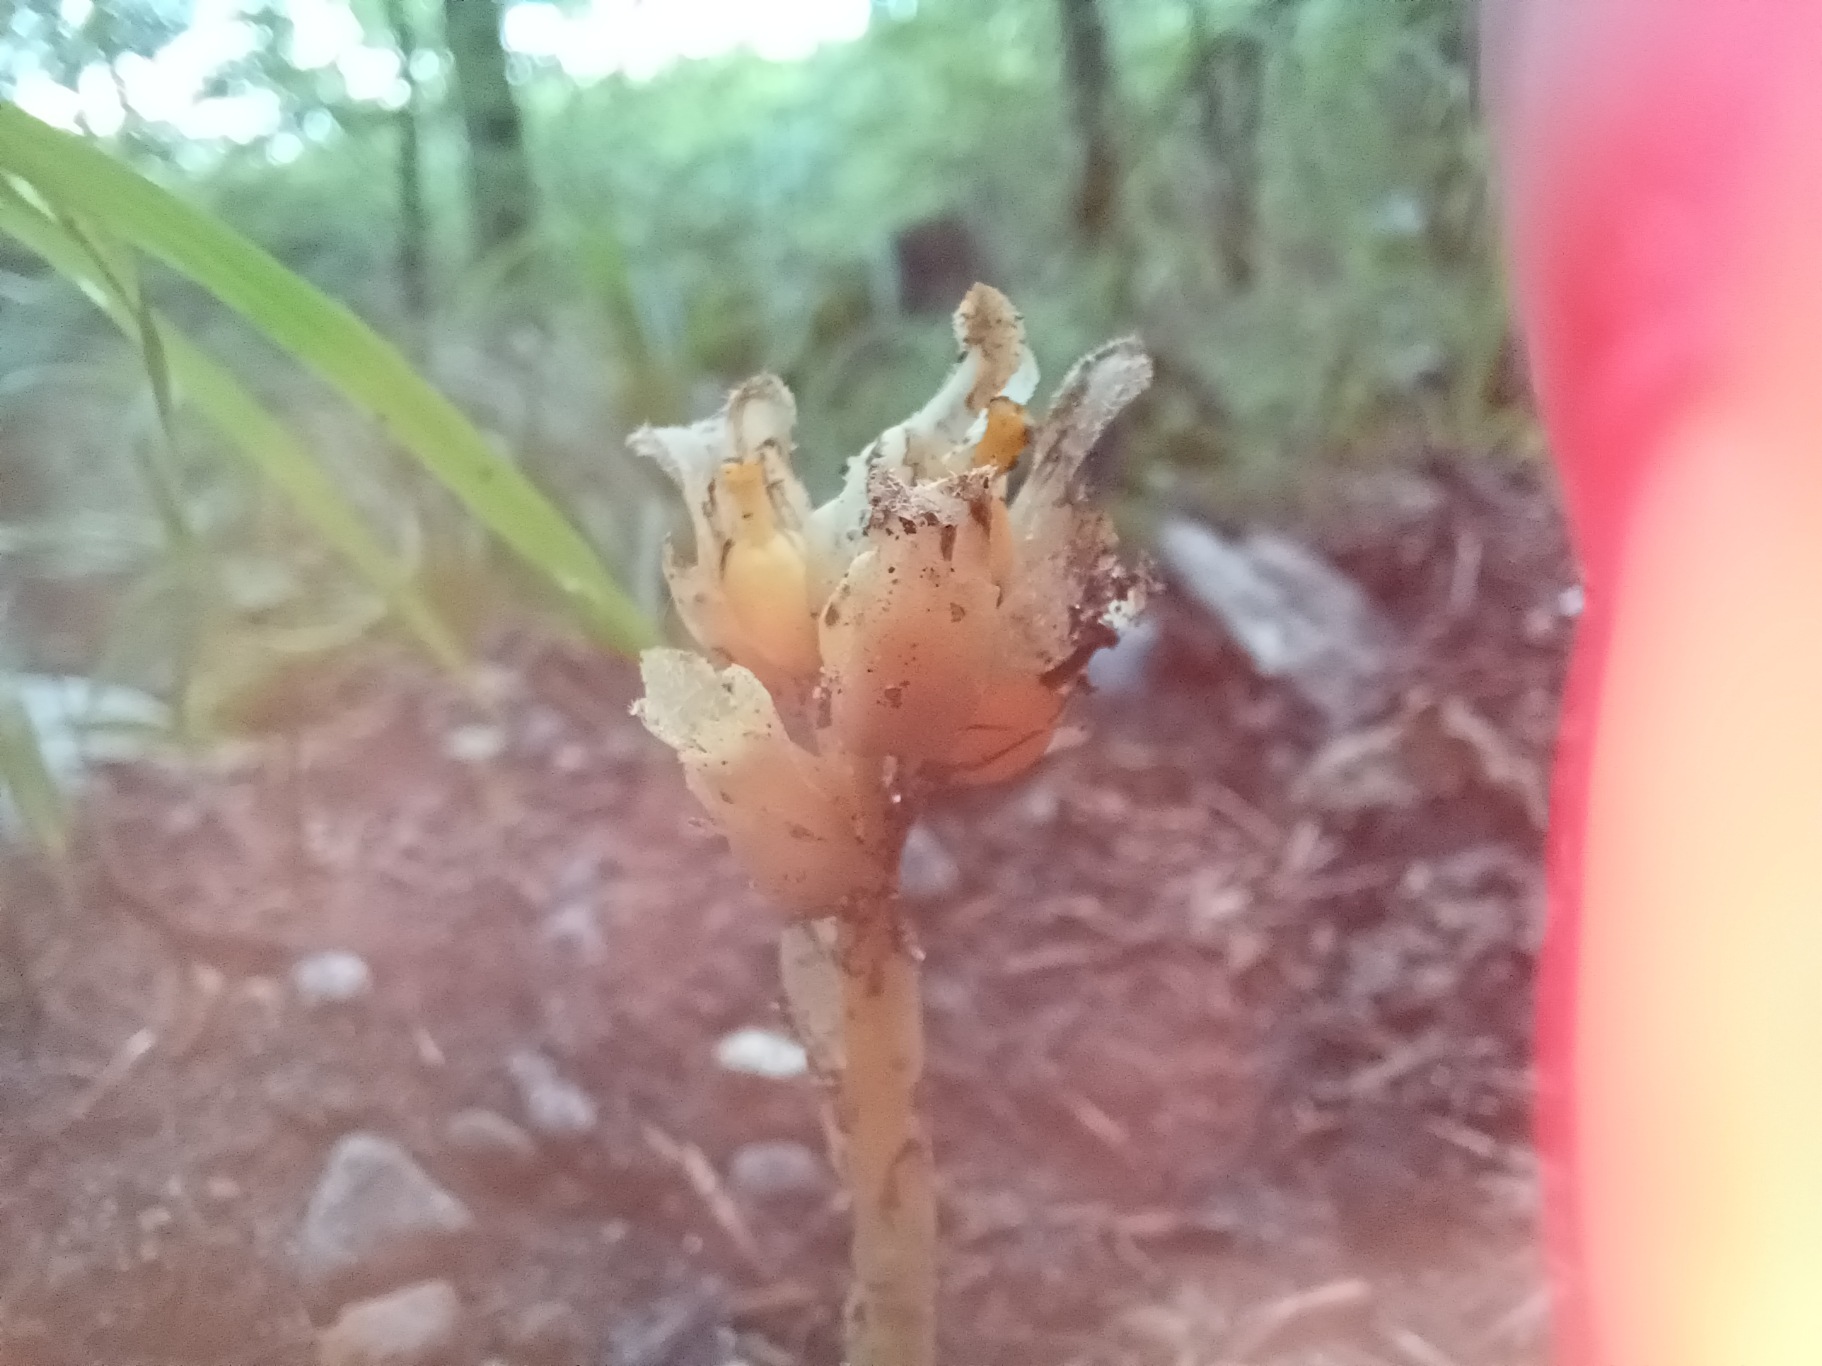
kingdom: Plantae
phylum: Tracheophyta
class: Magnoliopsida
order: Ericales
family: Ericaceae
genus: Hypopitys
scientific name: Hypopitys monotropa
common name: Snylterod
